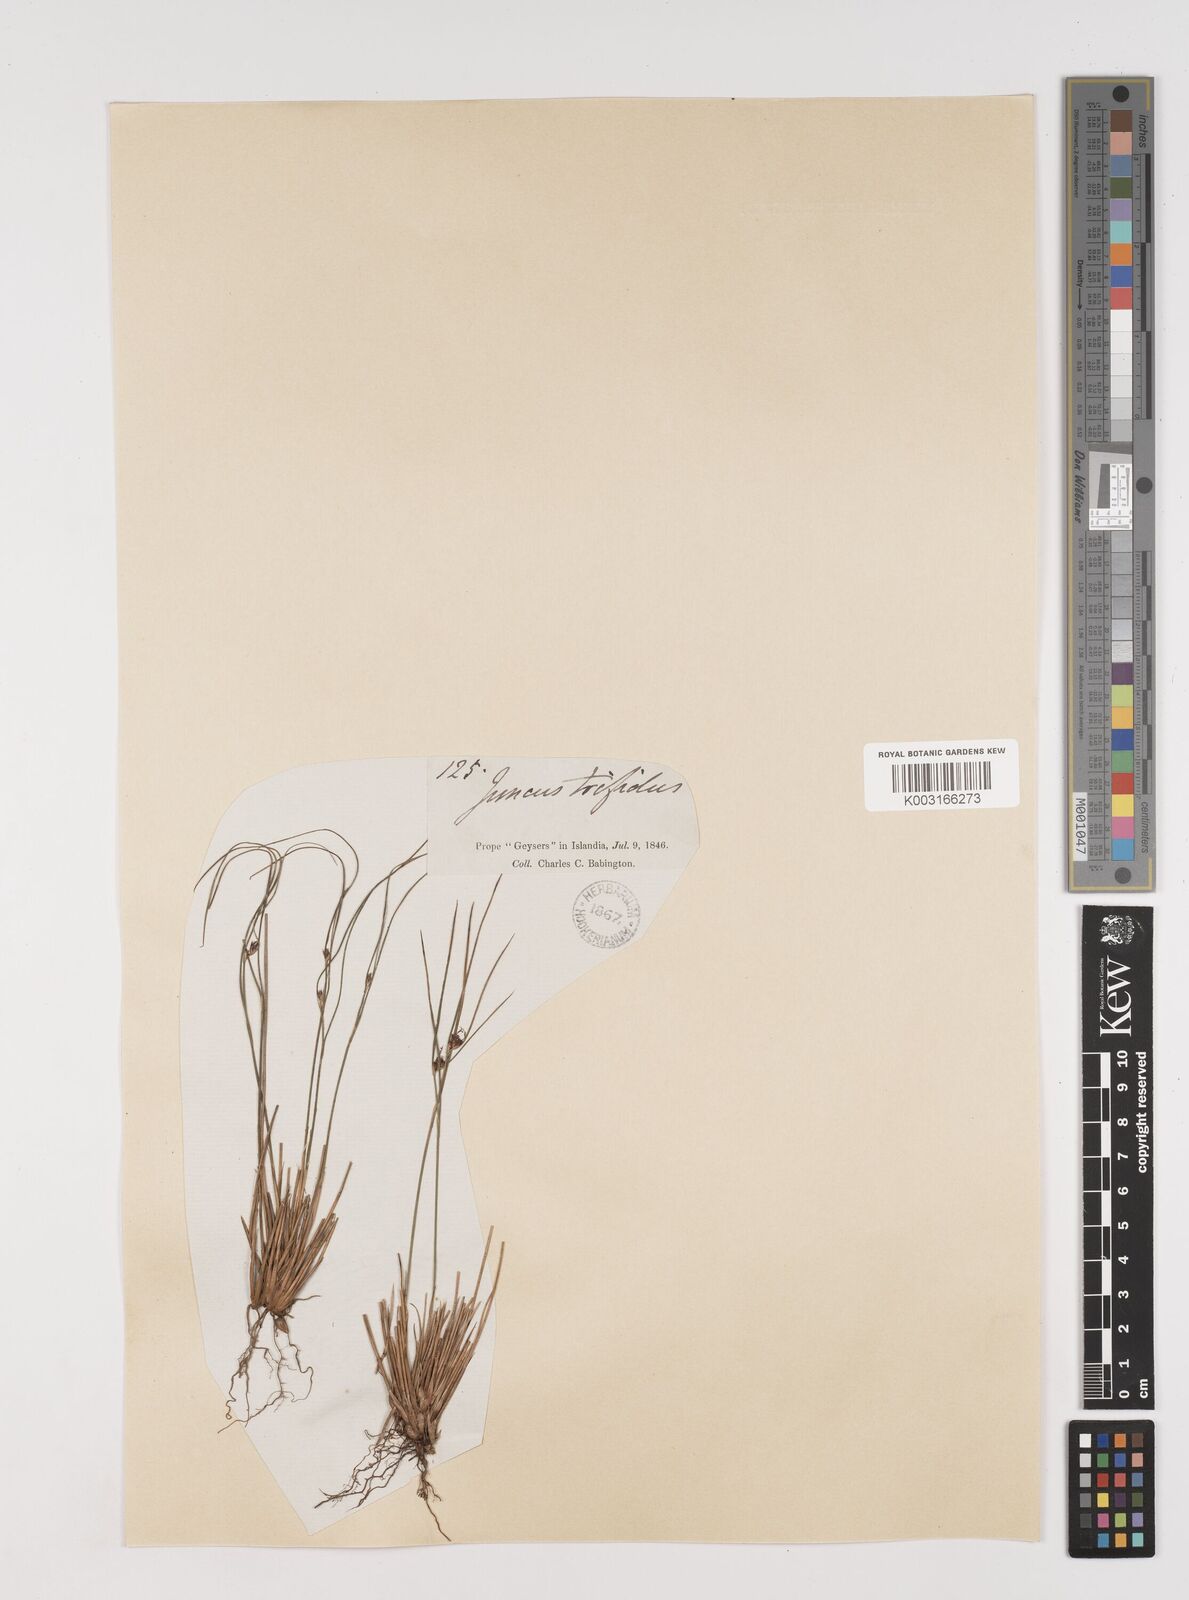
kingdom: Plantae
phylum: Tracheophyta
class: Liliopsida
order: Poales
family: Juncaceae
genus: Oreojuncus
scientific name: Oreojuncus trifidus
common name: Highland rush
